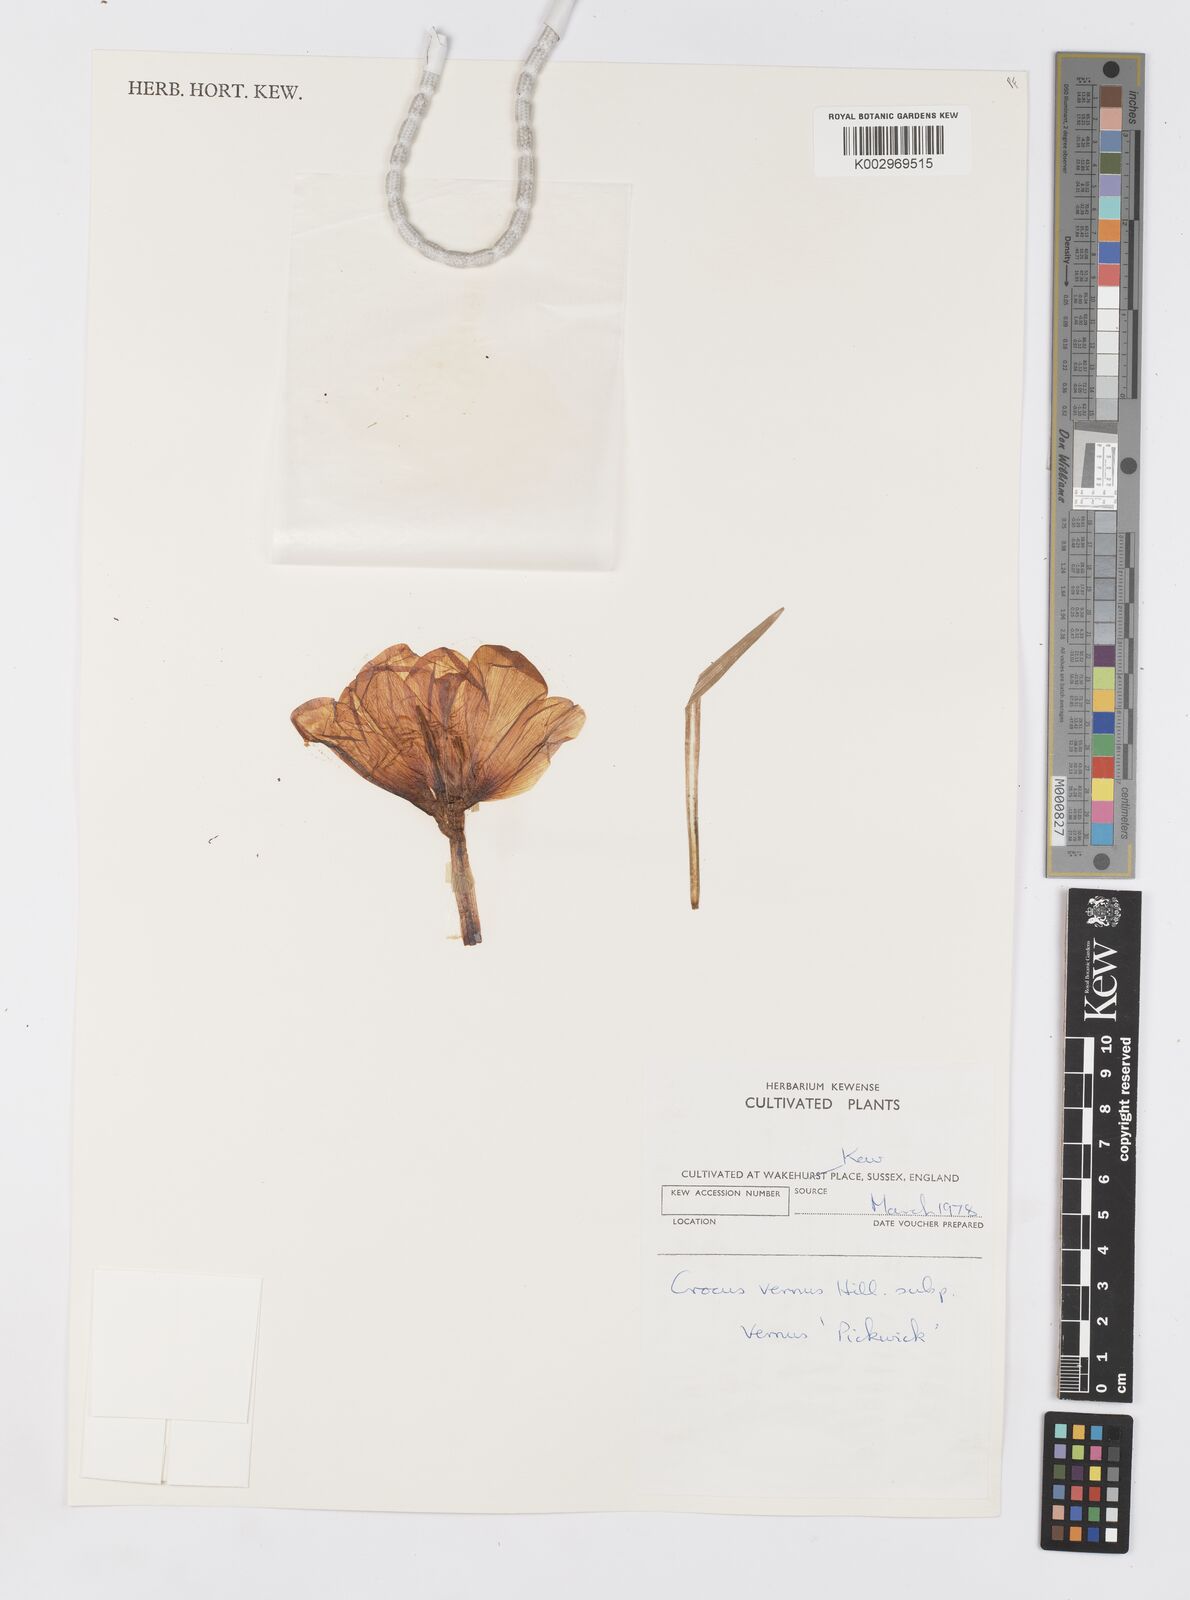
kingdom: Plantae
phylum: Tracheophyta
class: Liliopsida
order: Asparagales
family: Iridaceae
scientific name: Iridaceae
